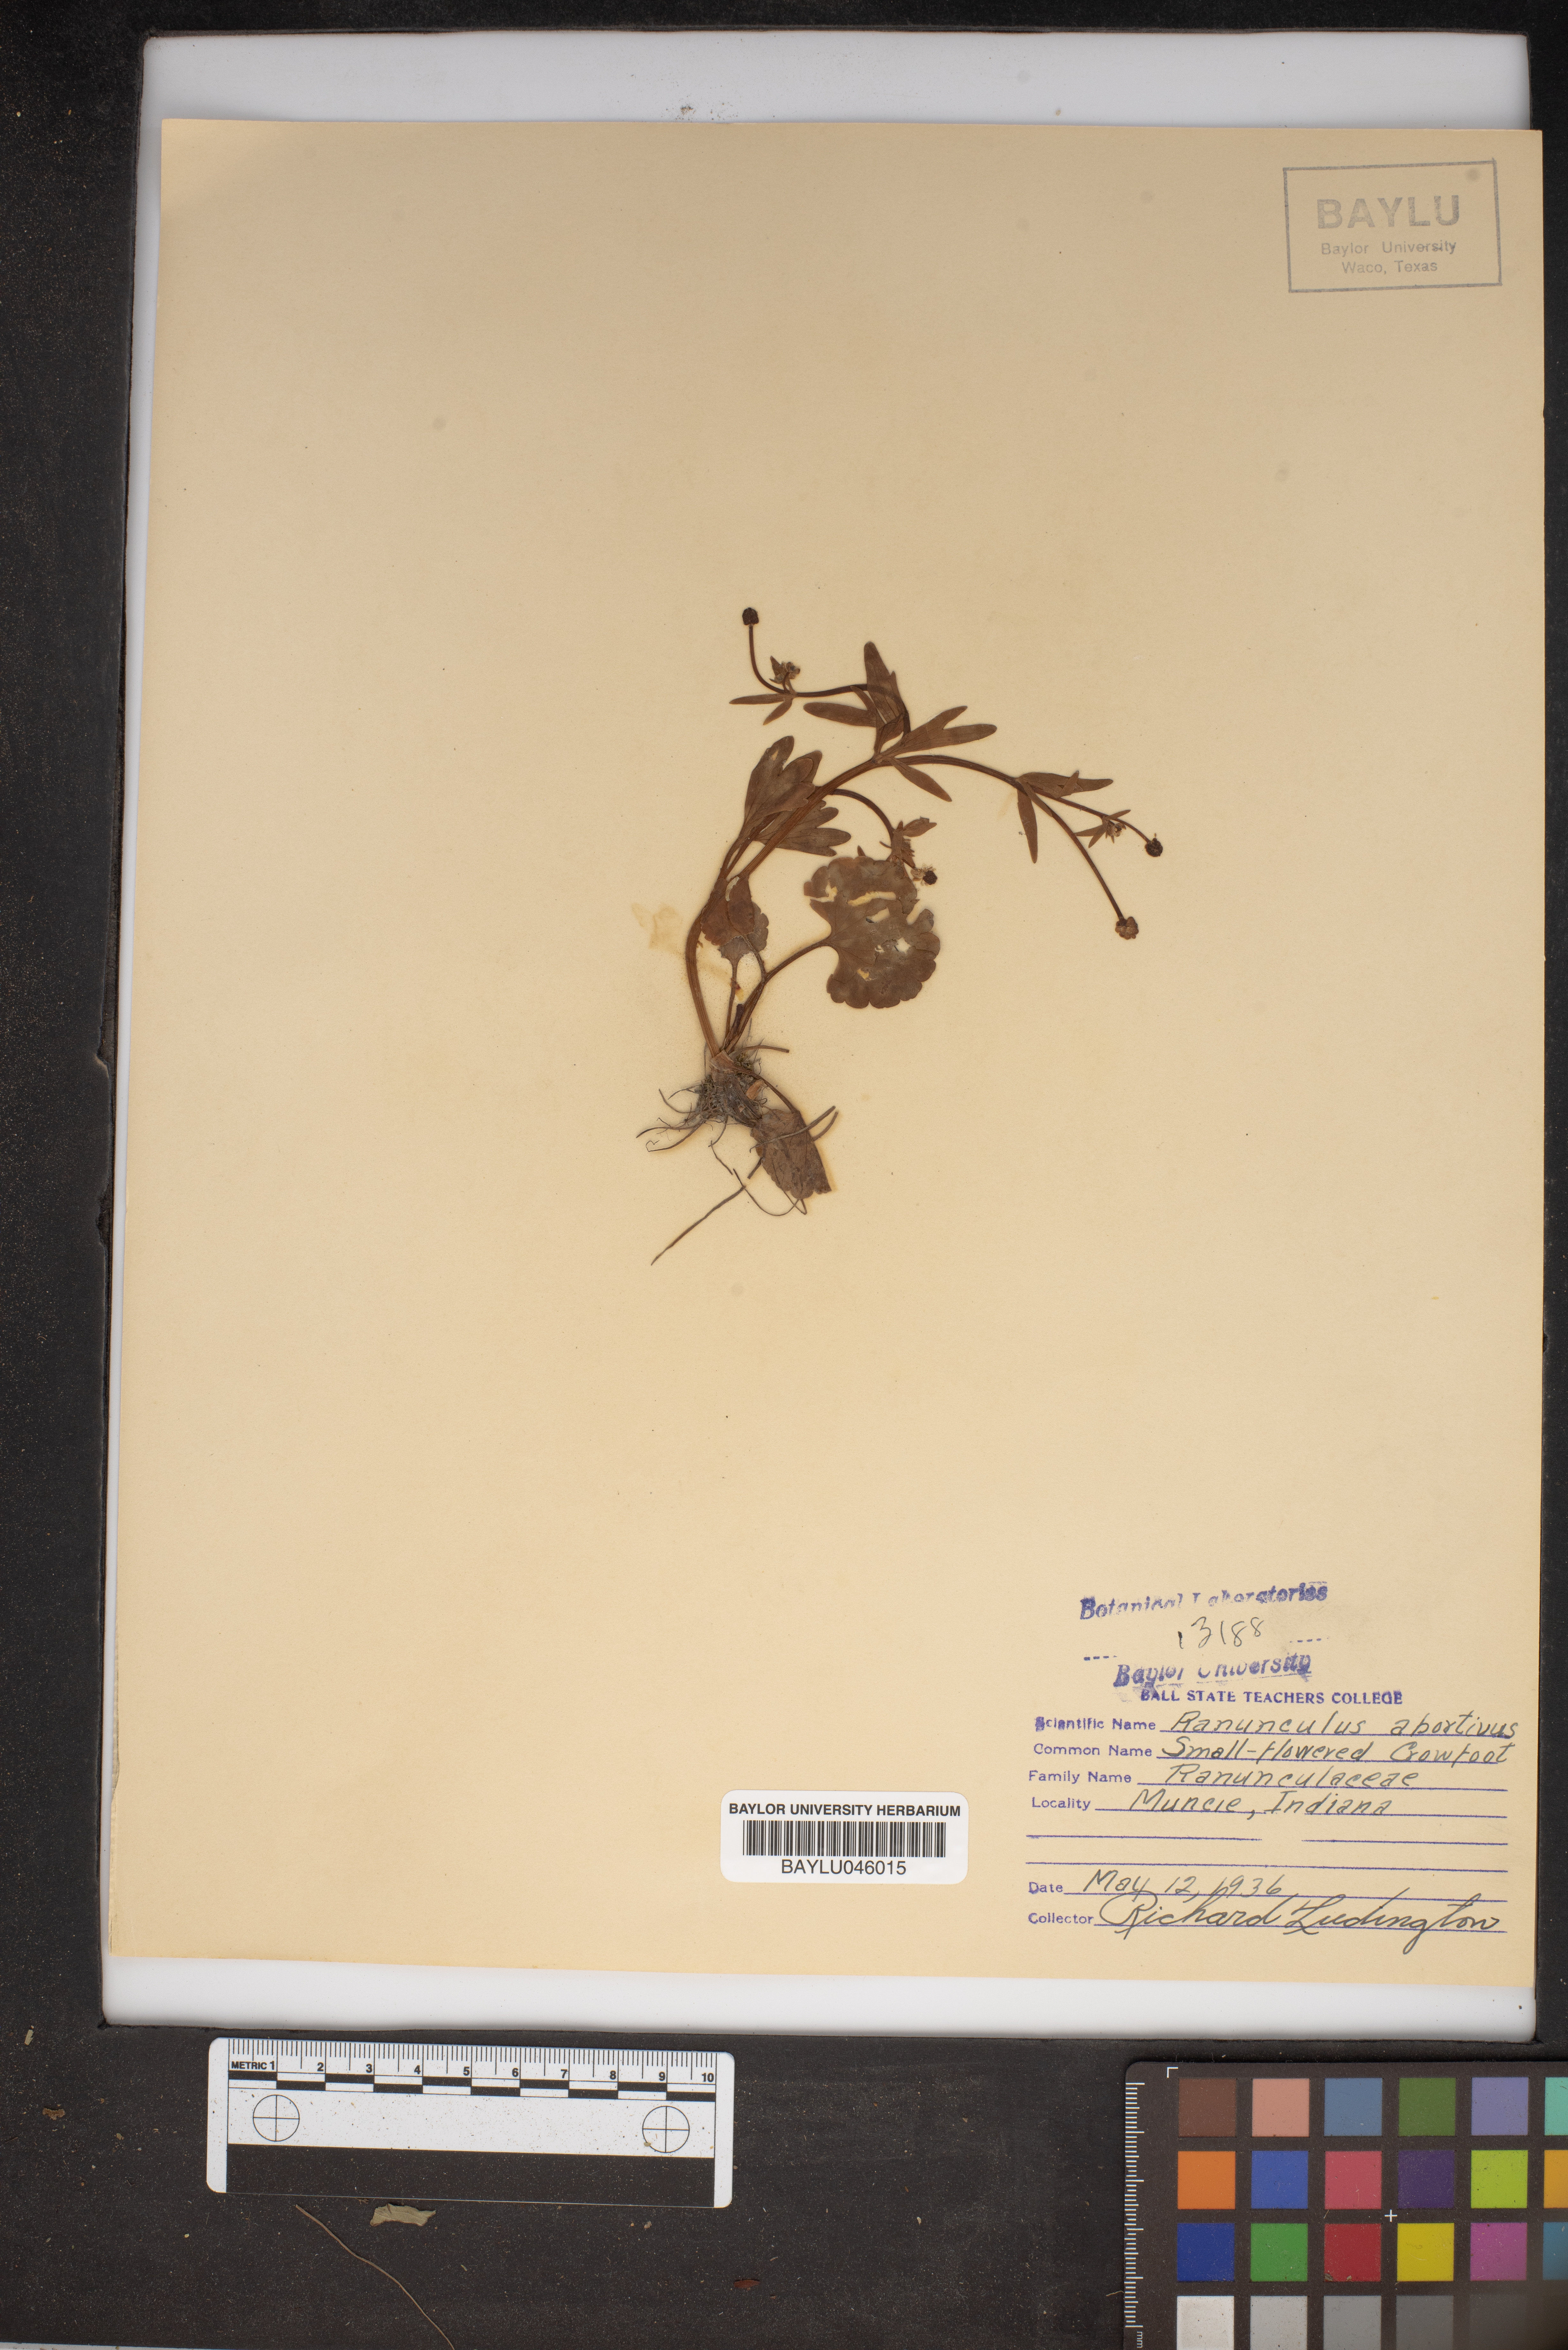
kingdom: Plantae
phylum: Tracheophyta
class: Magnoliopsida
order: Ranunculales
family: Ranunculaceae
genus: Ranunculus
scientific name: Ranunculus abortivus
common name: Early wood buttercup
